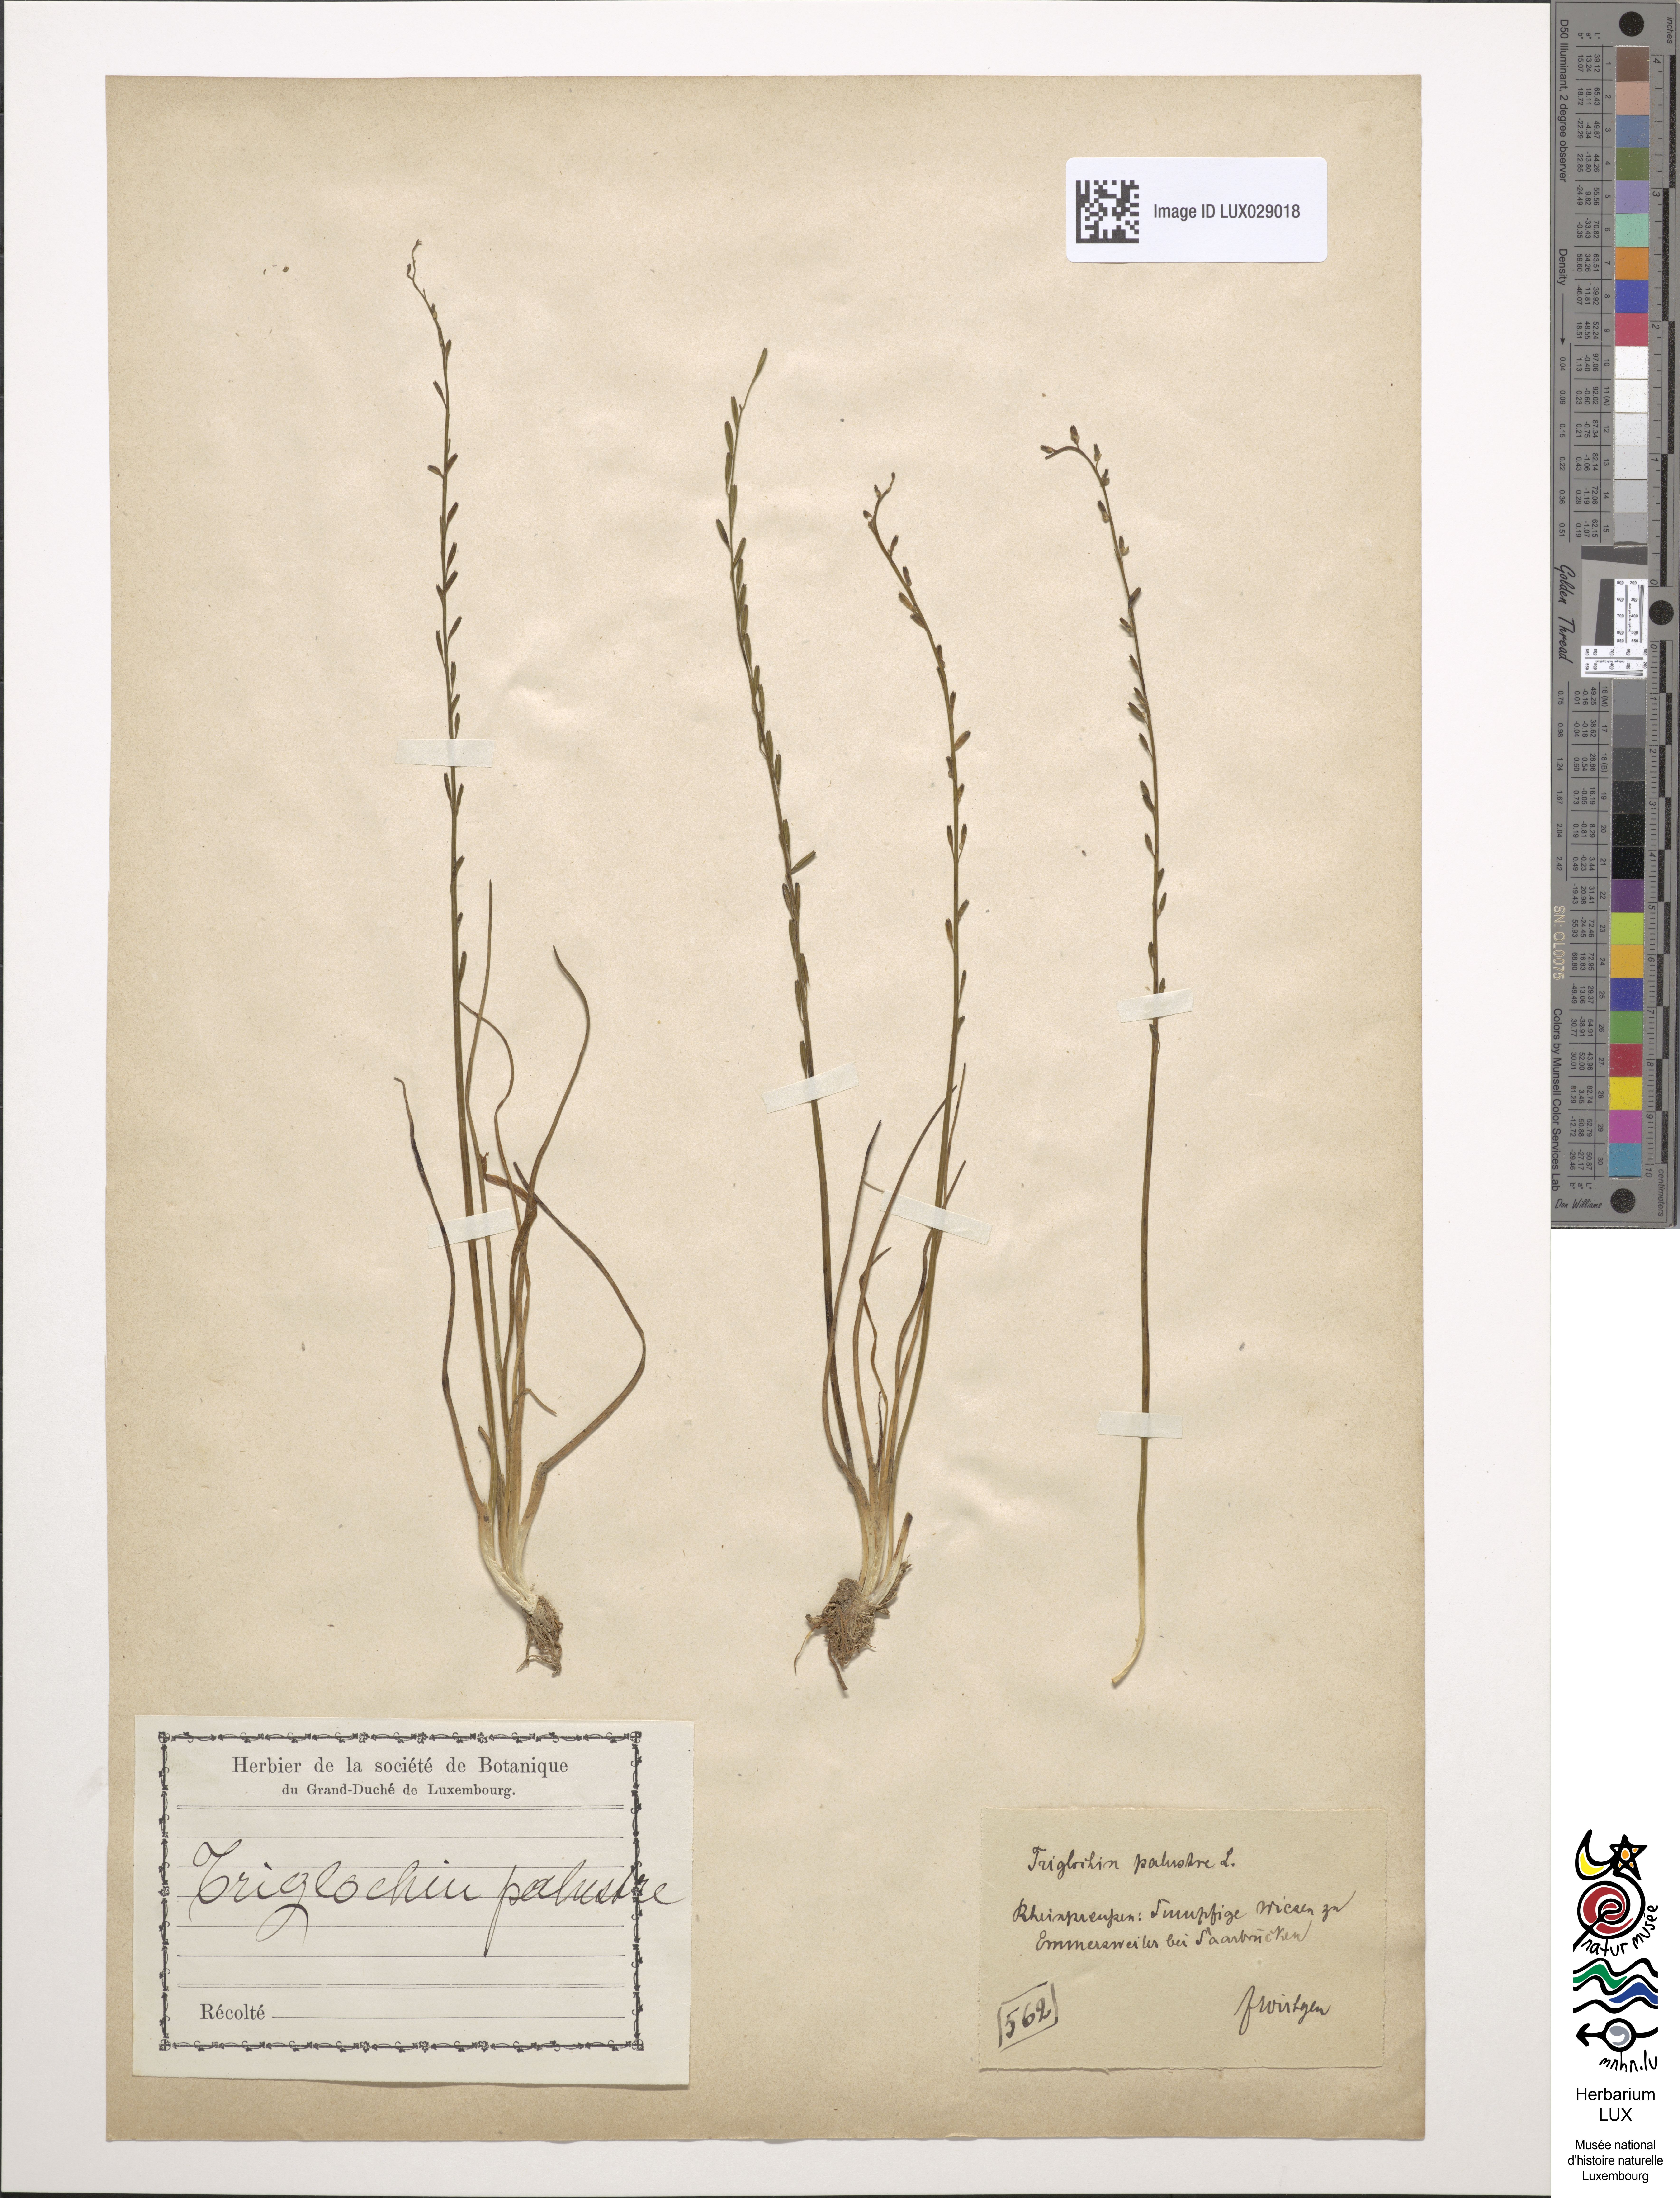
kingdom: Plantae
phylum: Tracheophyta
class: Liliopsida
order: Alismatales
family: Juncaginaceae
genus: Triglochin
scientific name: Triglochin palustris
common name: Marsh arrowgrass
